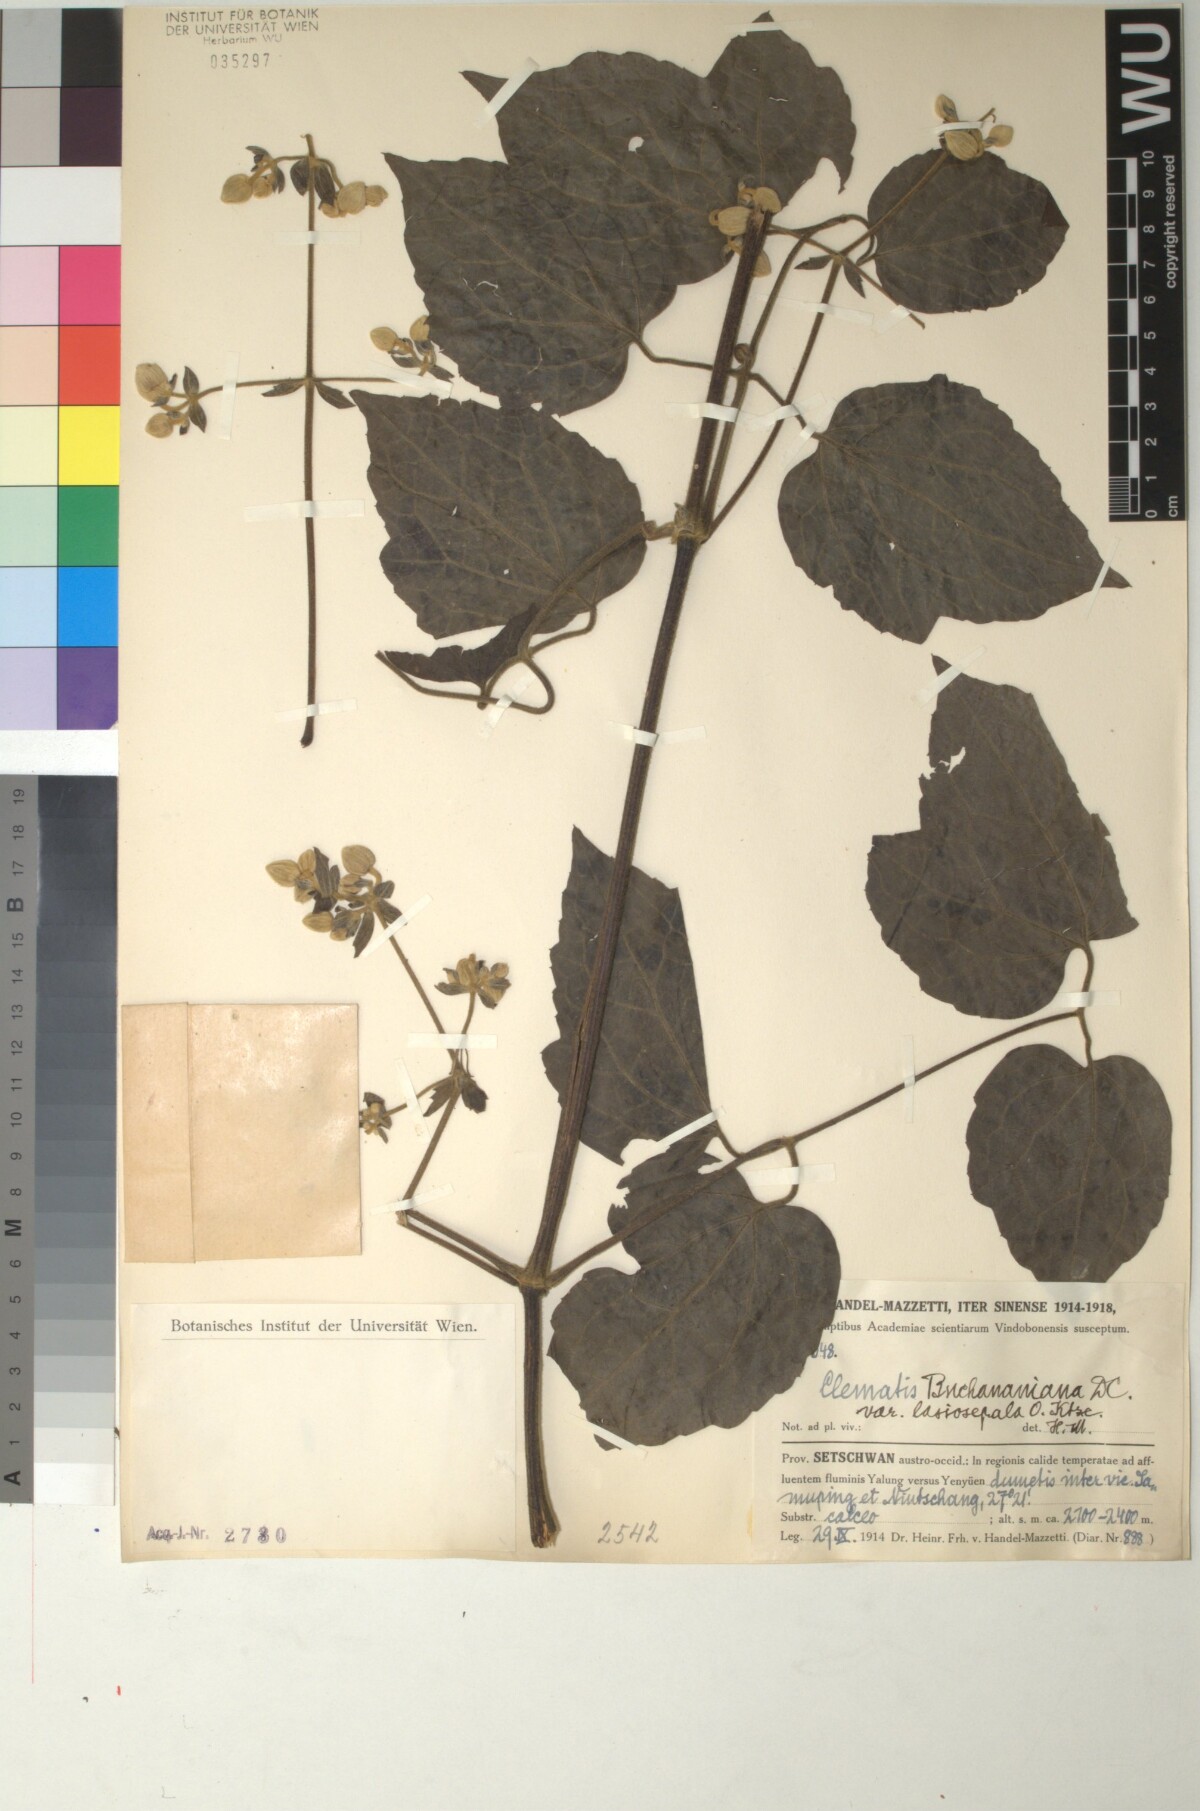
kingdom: Plantae
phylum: Tracheophyta
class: Magnoliopsida
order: Ranunculales
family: Ranunculaceae
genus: Clematis
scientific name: Clematis buchananiana
